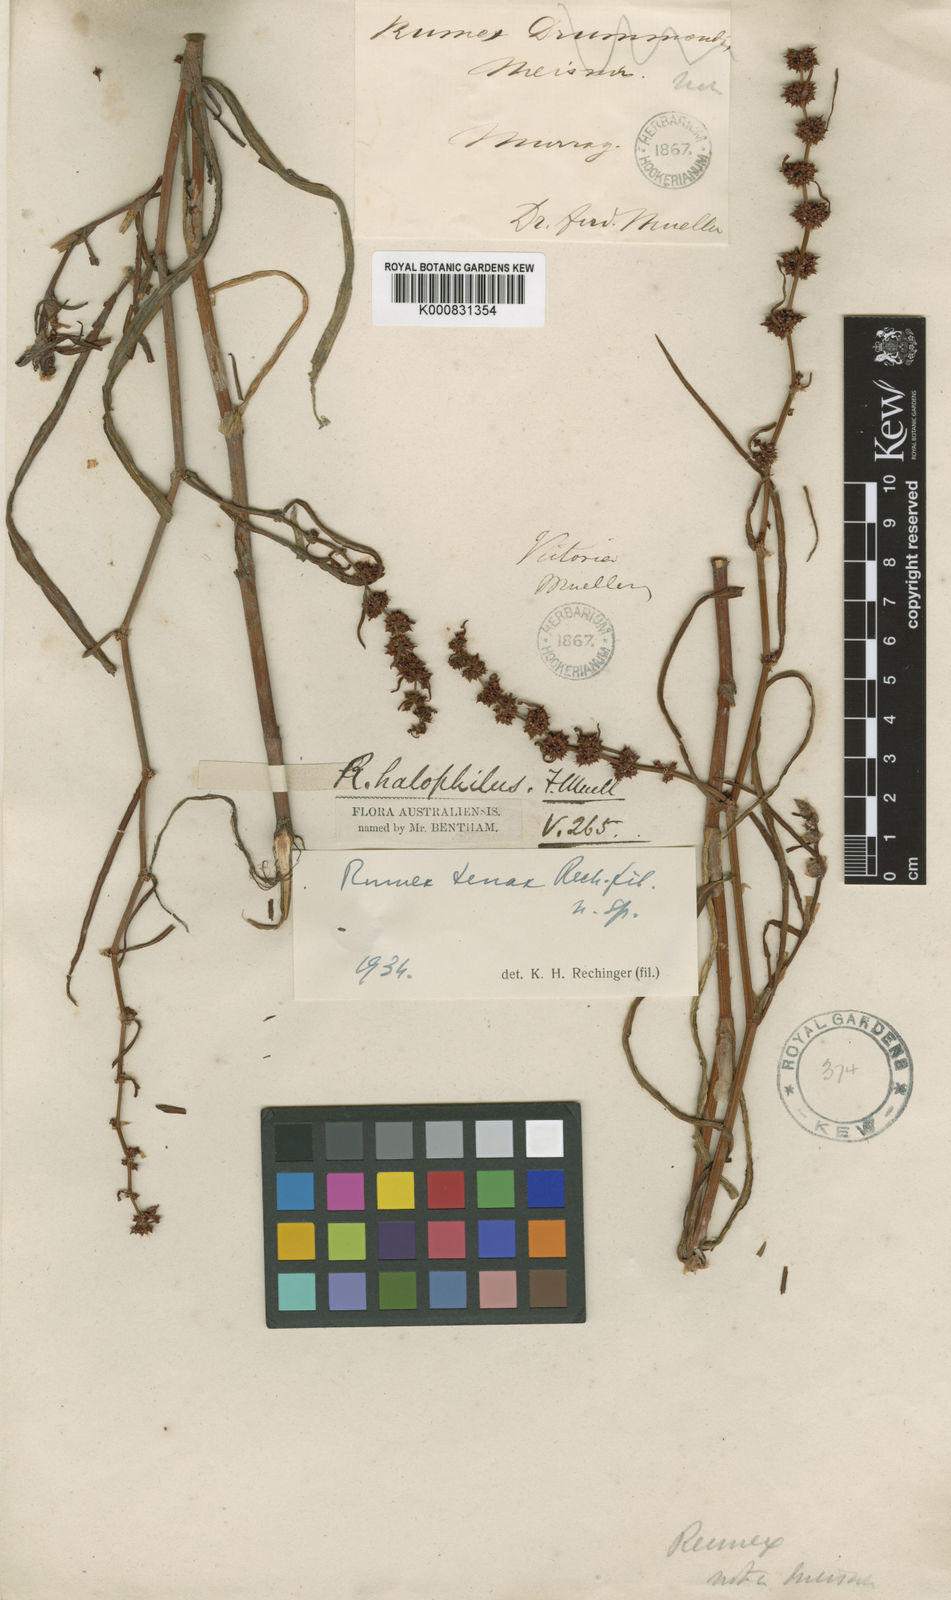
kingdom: Plantae
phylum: Tracheophyta
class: Magnoliopsida
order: Caryophyllales
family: Polygonaceae
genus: Rumex
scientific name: Rumex tenax
